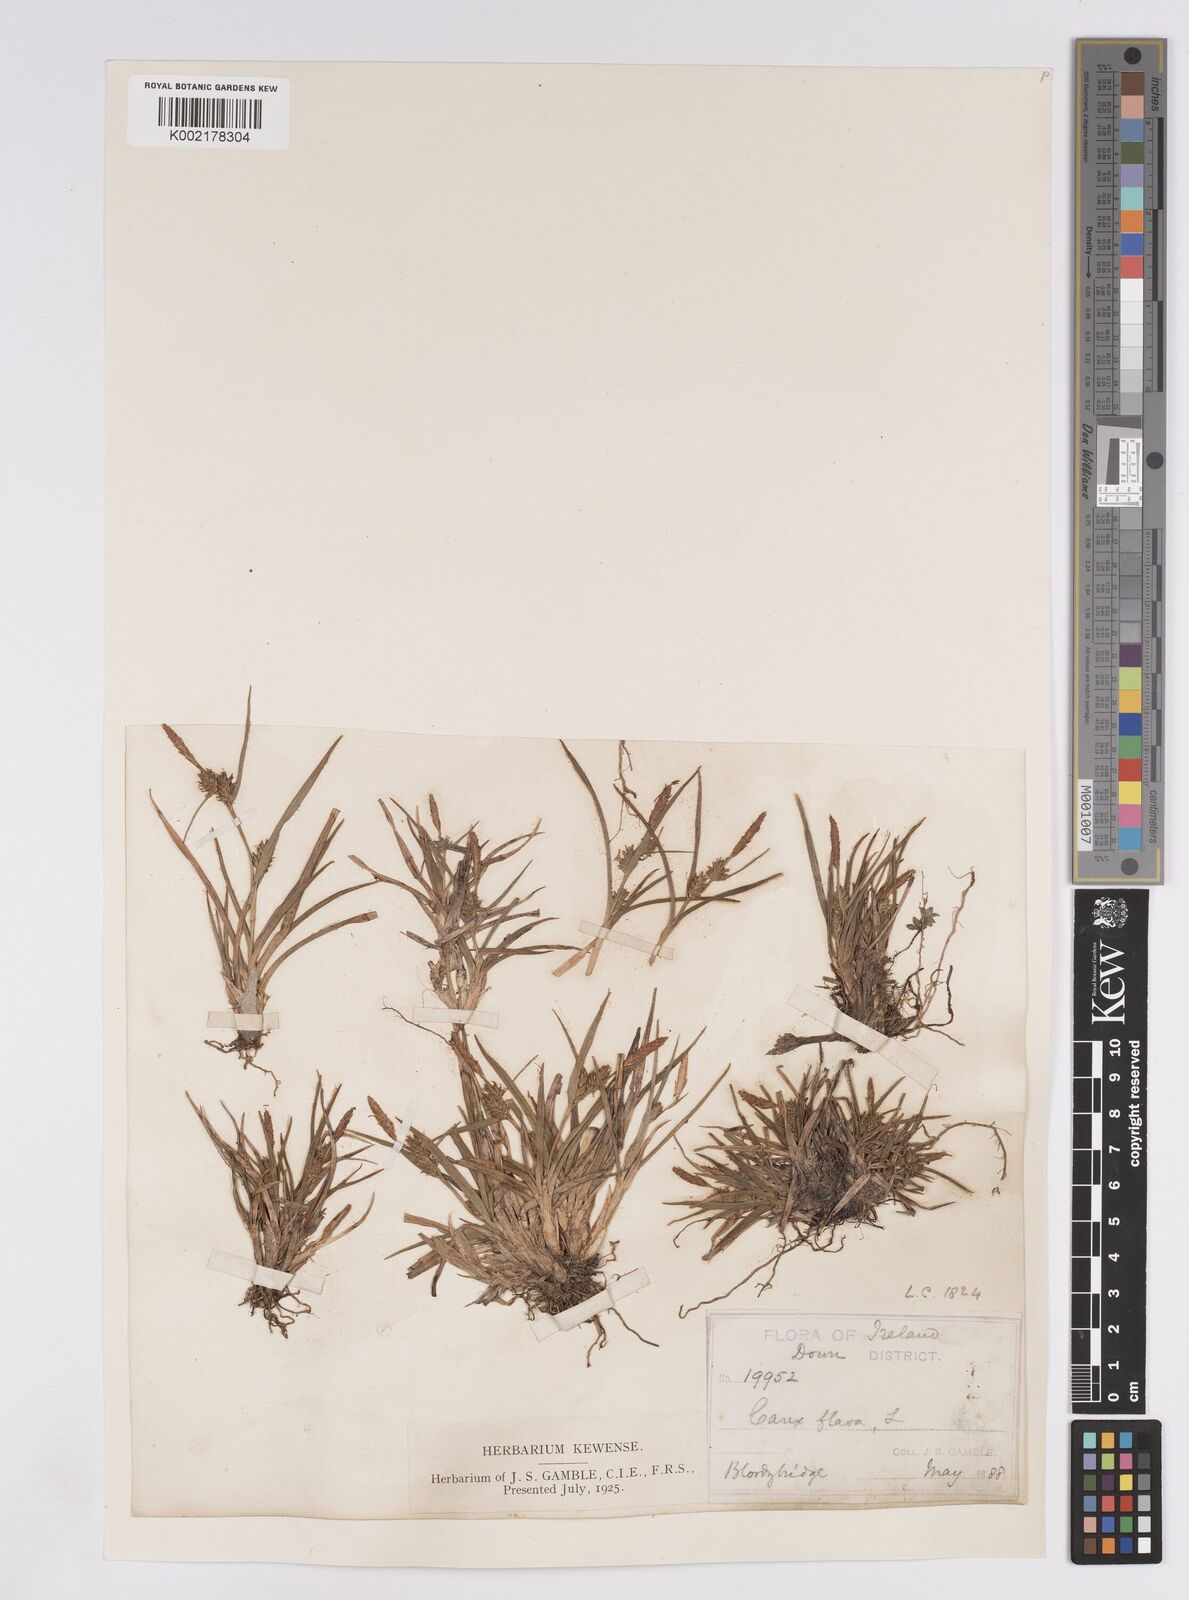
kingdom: Plantae
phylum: Tracheophyta
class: Liliopsida
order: Poales
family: Cyperaceae
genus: Carex
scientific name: Carex demissa
